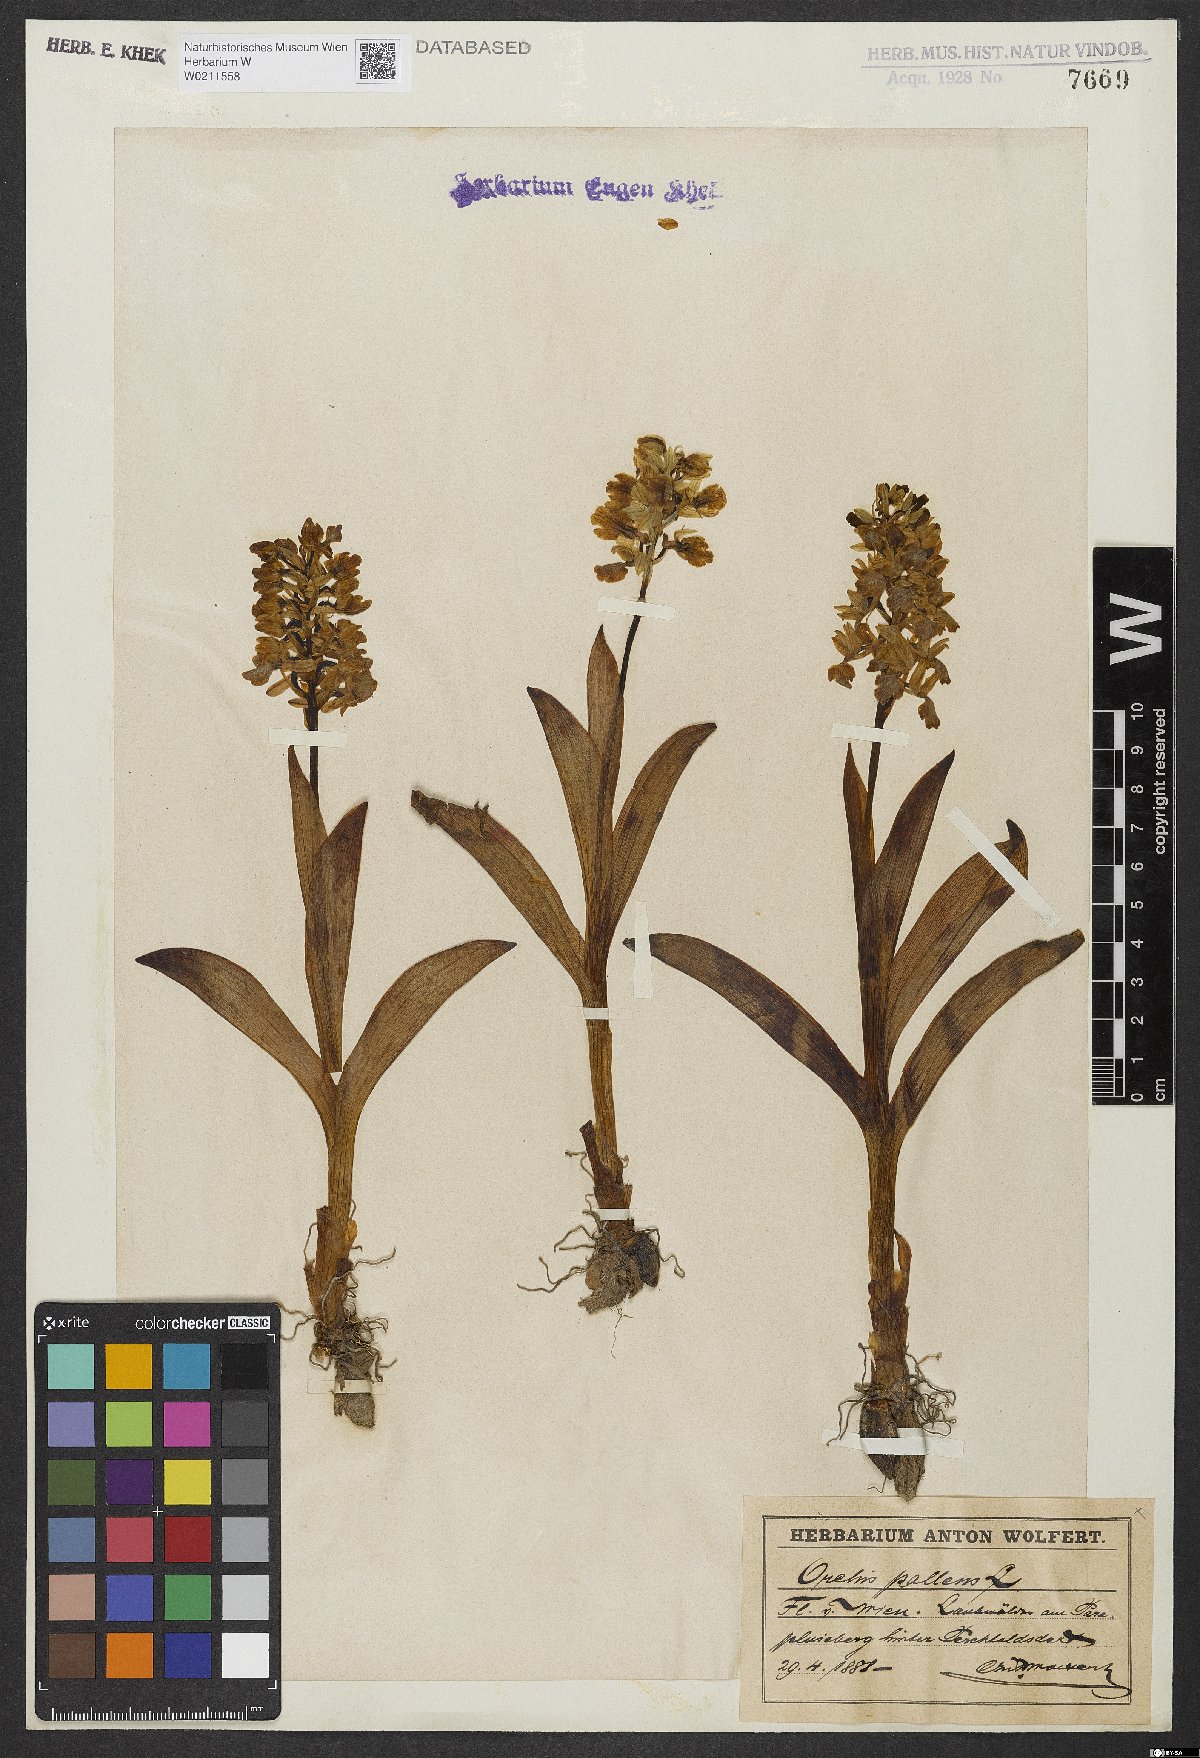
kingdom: Plantae
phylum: Tracheophyta
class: Liliopsida
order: Asparagales
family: Orchidaceae
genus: Orchis
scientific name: Orchis pallens
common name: Pale-flowered orchid
